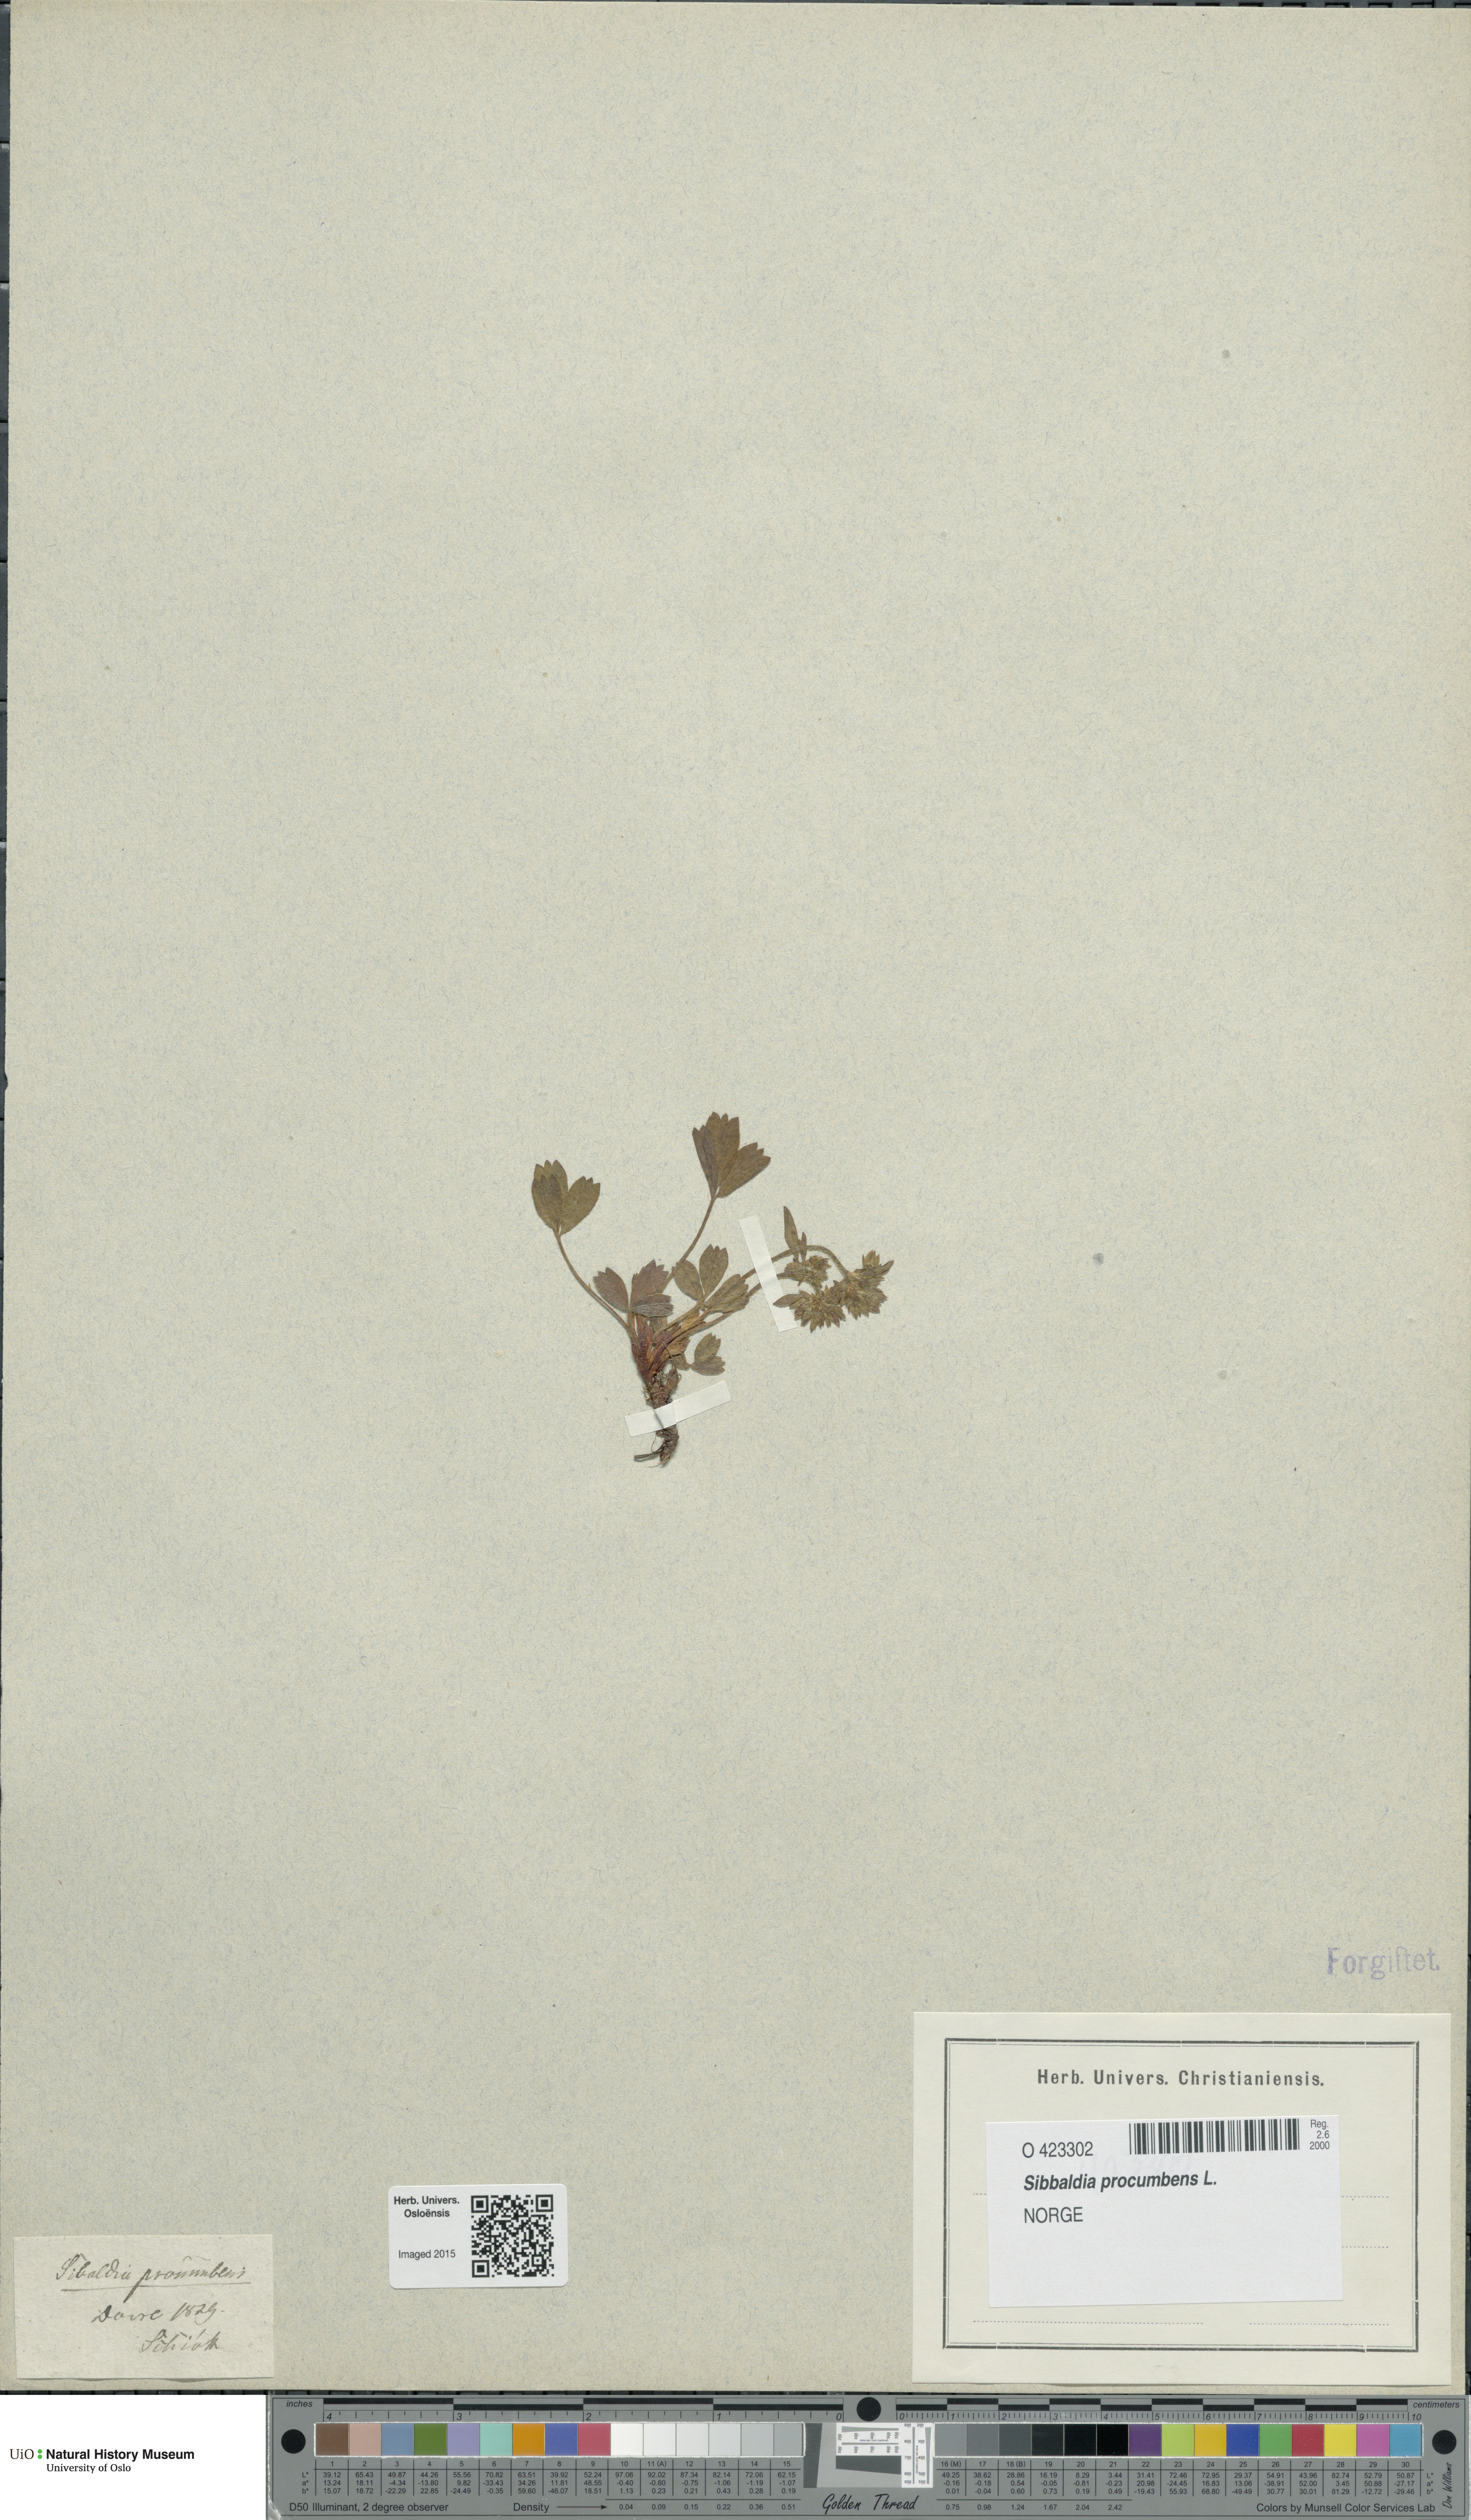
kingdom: Plantae
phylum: Tracheophyta
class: Magnoliopsida
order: Rosales
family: Rosaceae
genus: Sibbaldia
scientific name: Sibbaldia procumbens
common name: Creeping sibbaldia
